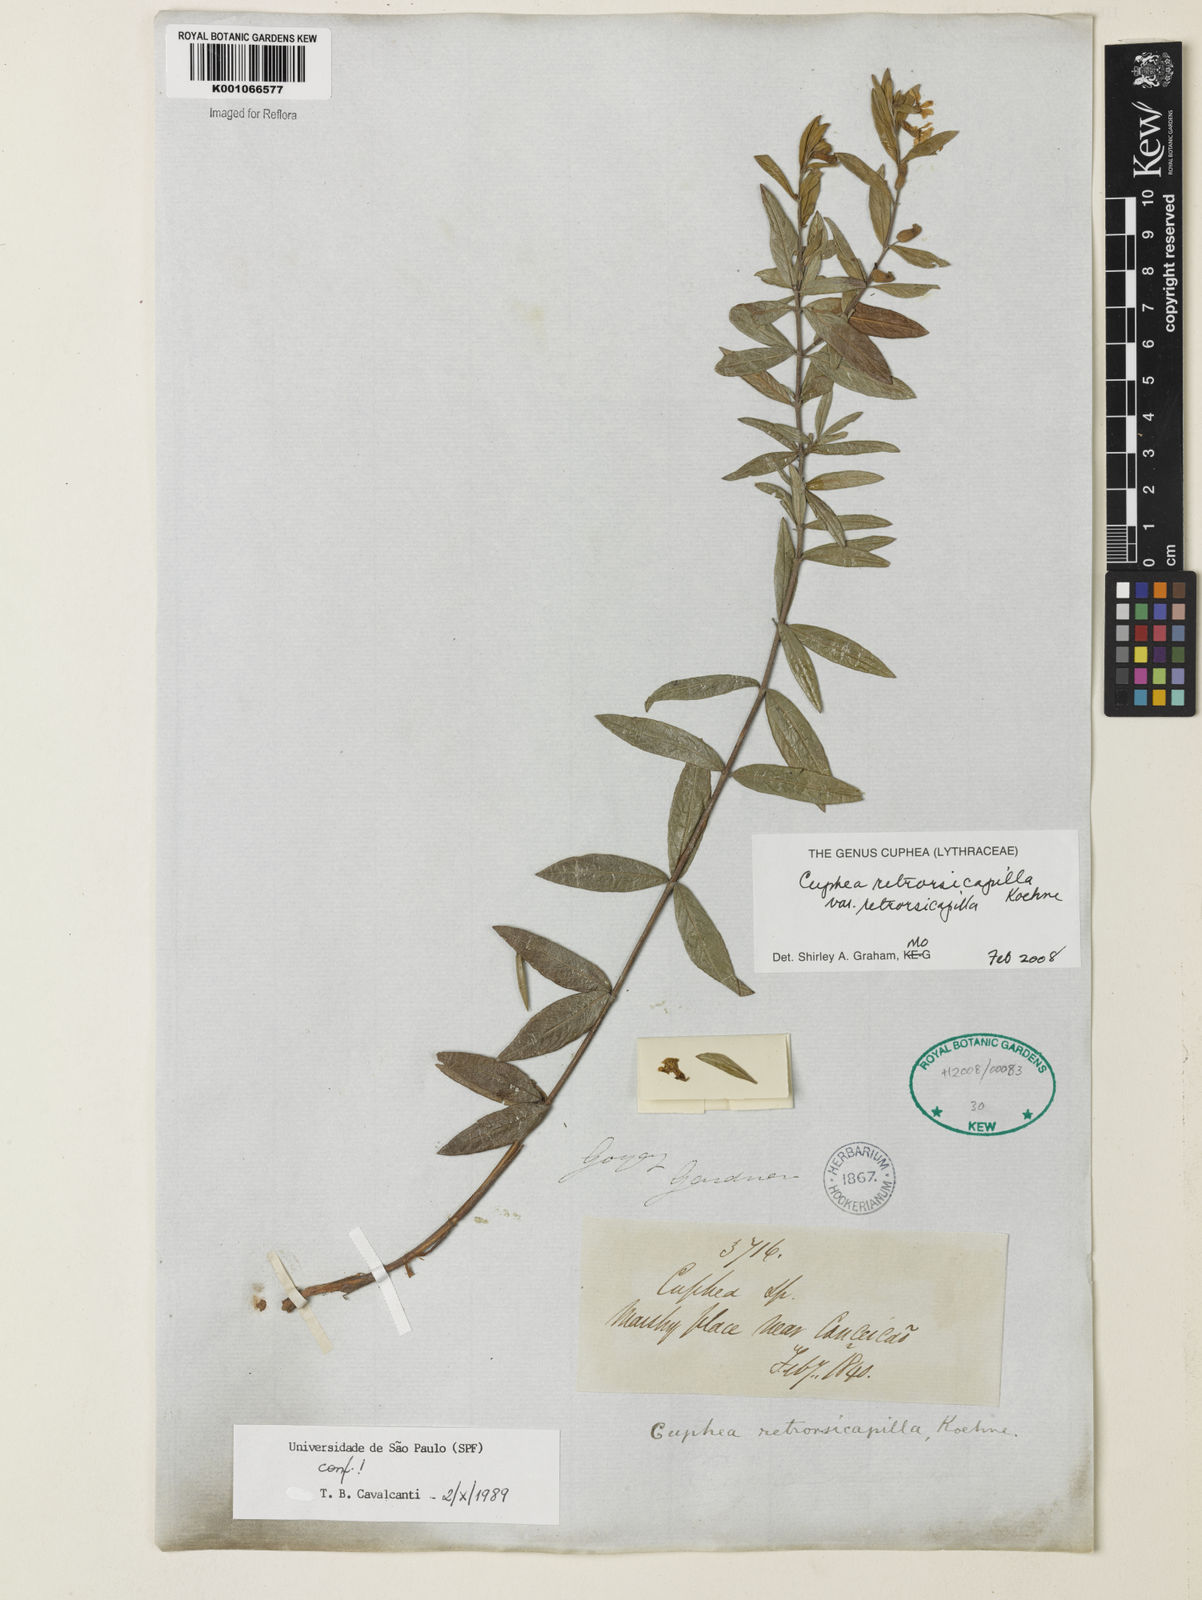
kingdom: Plantae
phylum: Tracheophyta
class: Magnoliopsida
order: Myrtales
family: Lythraceae
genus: Cuphea
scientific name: Cuphea retrorsicapilla
